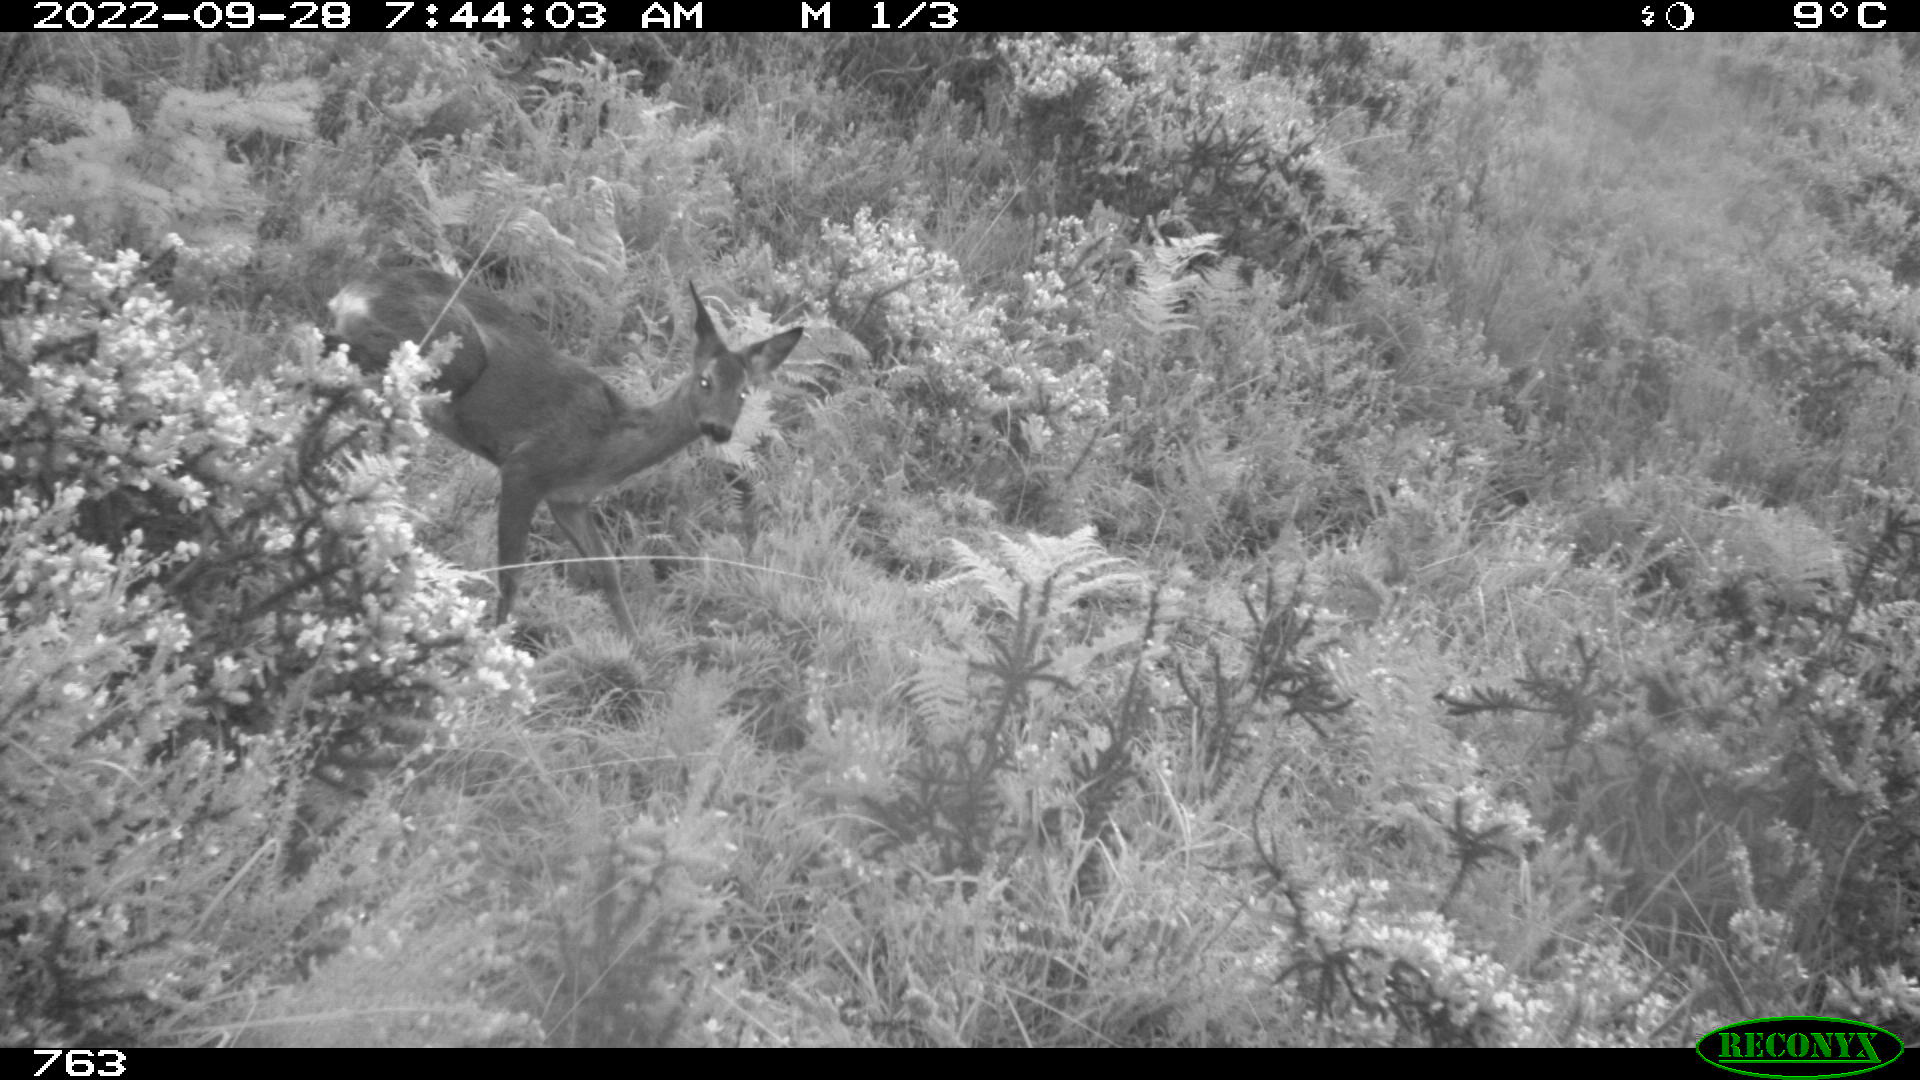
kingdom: Animalia
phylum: Chordata
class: Mammalia
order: Artiodactyla
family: Cervidae
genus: Capreolus
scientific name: Capreolus capreolus
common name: Western roe deer
